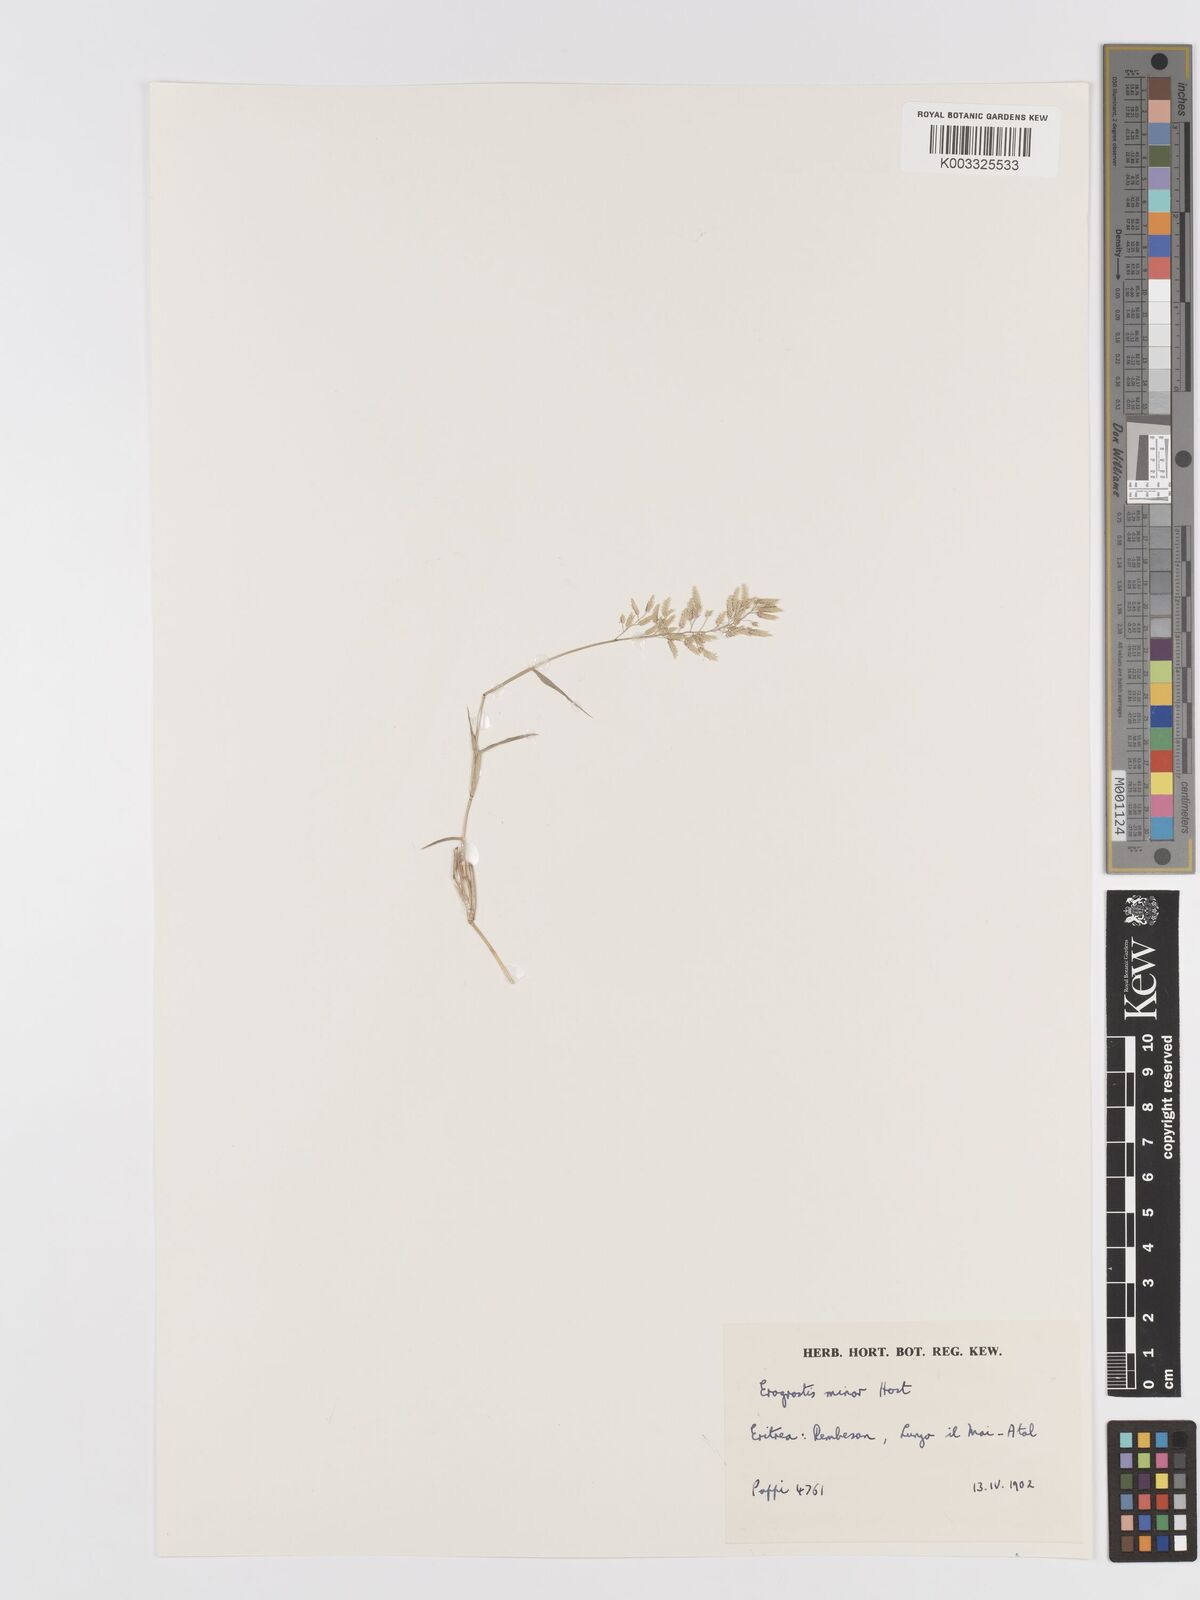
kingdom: Plantae
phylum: Tracheophyta
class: Liliopsida
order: Poales
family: Poaceae
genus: Eragrostis
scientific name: Eragrostis minor
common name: Small love-grass
